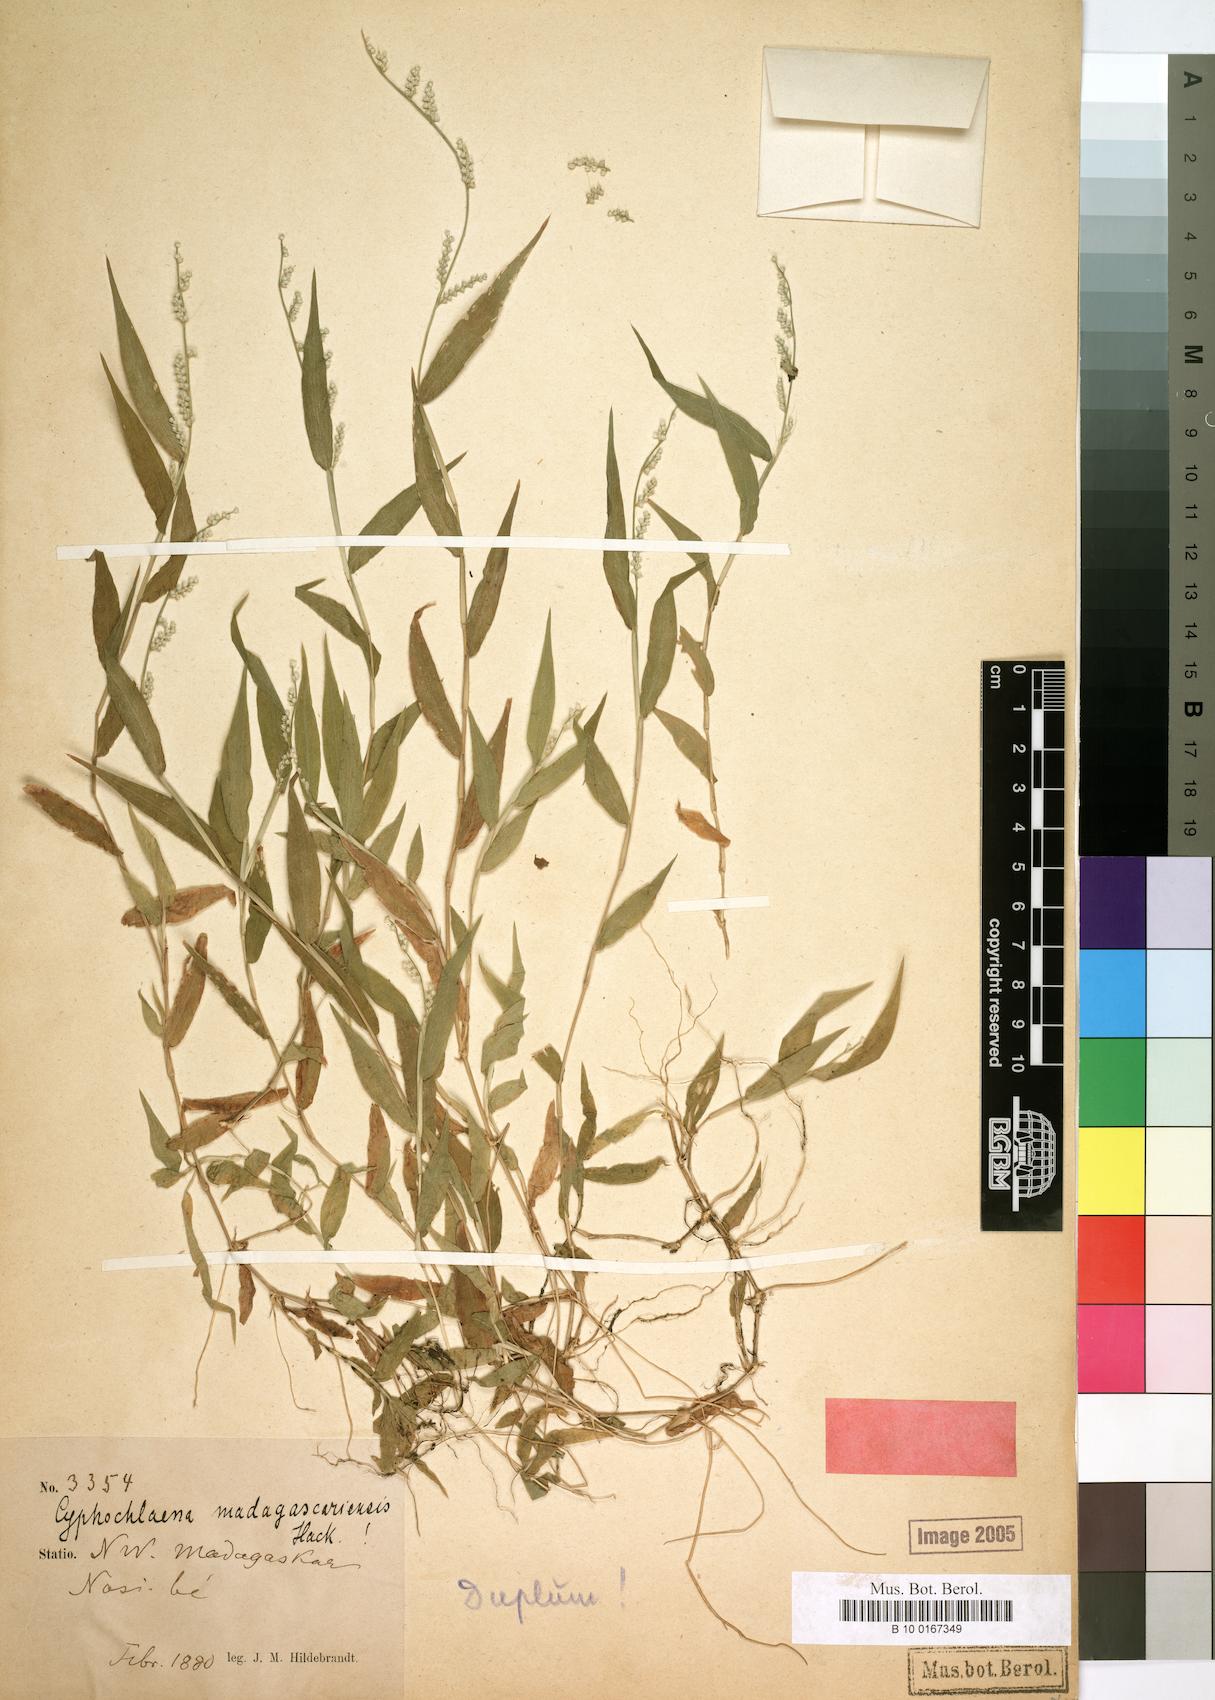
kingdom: Plantae
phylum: Tracheophyta
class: Liliopsida
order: Poales
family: Poaceae
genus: Cyphochlaena
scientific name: Cyphochlaena madagascariensis
